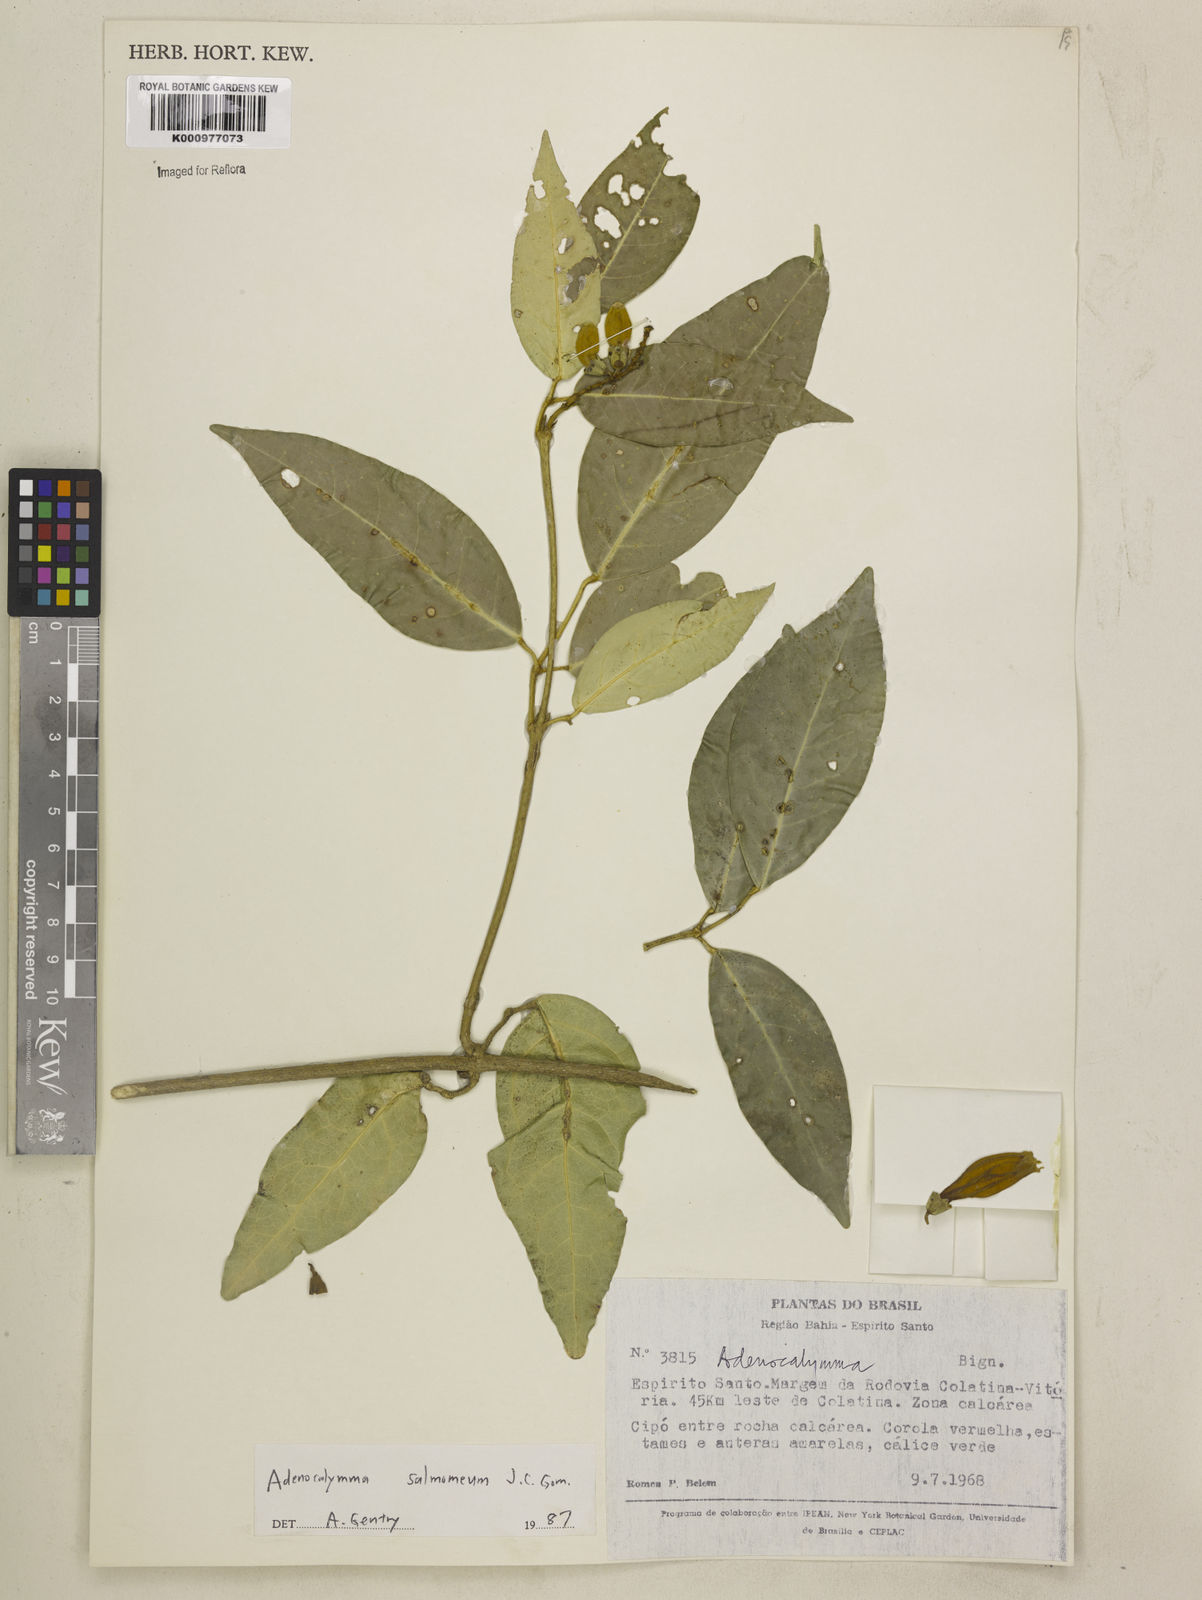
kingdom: Plantae
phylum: Tracheophyta
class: Magnoliopsida
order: Lamiales
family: Bignoniaceae
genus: Adenocalymma
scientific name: Adenocalymma salmoneum
